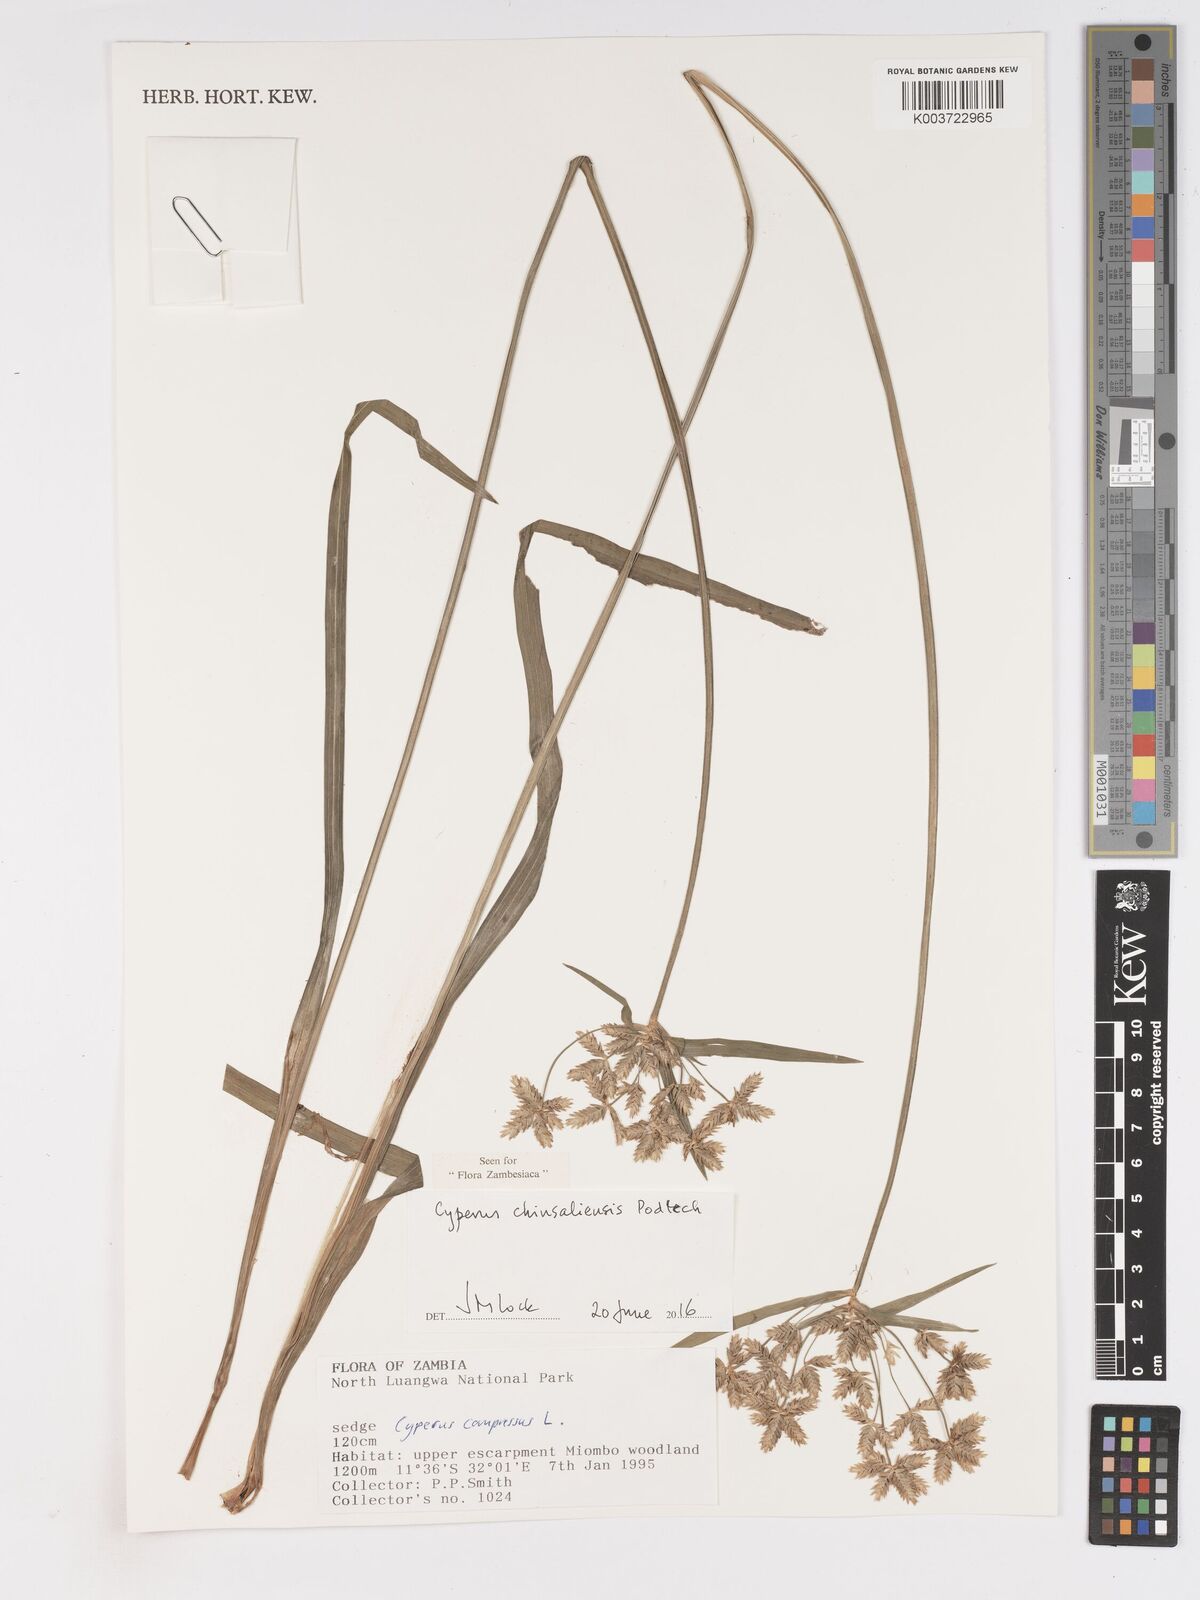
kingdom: Plantae
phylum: Tracheophyta
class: Liliopsida
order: Poales
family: Cyperaceae
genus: Cyperus
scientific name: Cyperus chinsalensis
